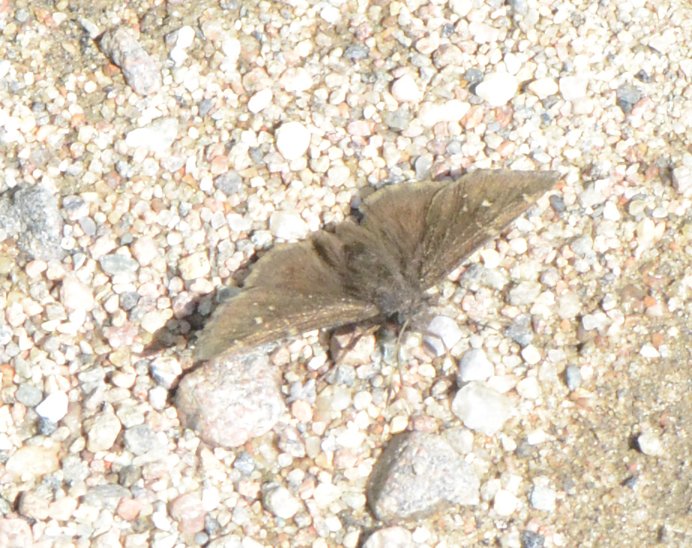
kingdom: Animalia
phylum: Arthropoda
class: Insecta
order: Lepidoptera
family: Hesperiidae
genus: Autochton
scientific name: Autochton
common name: Northern Cloudywing
